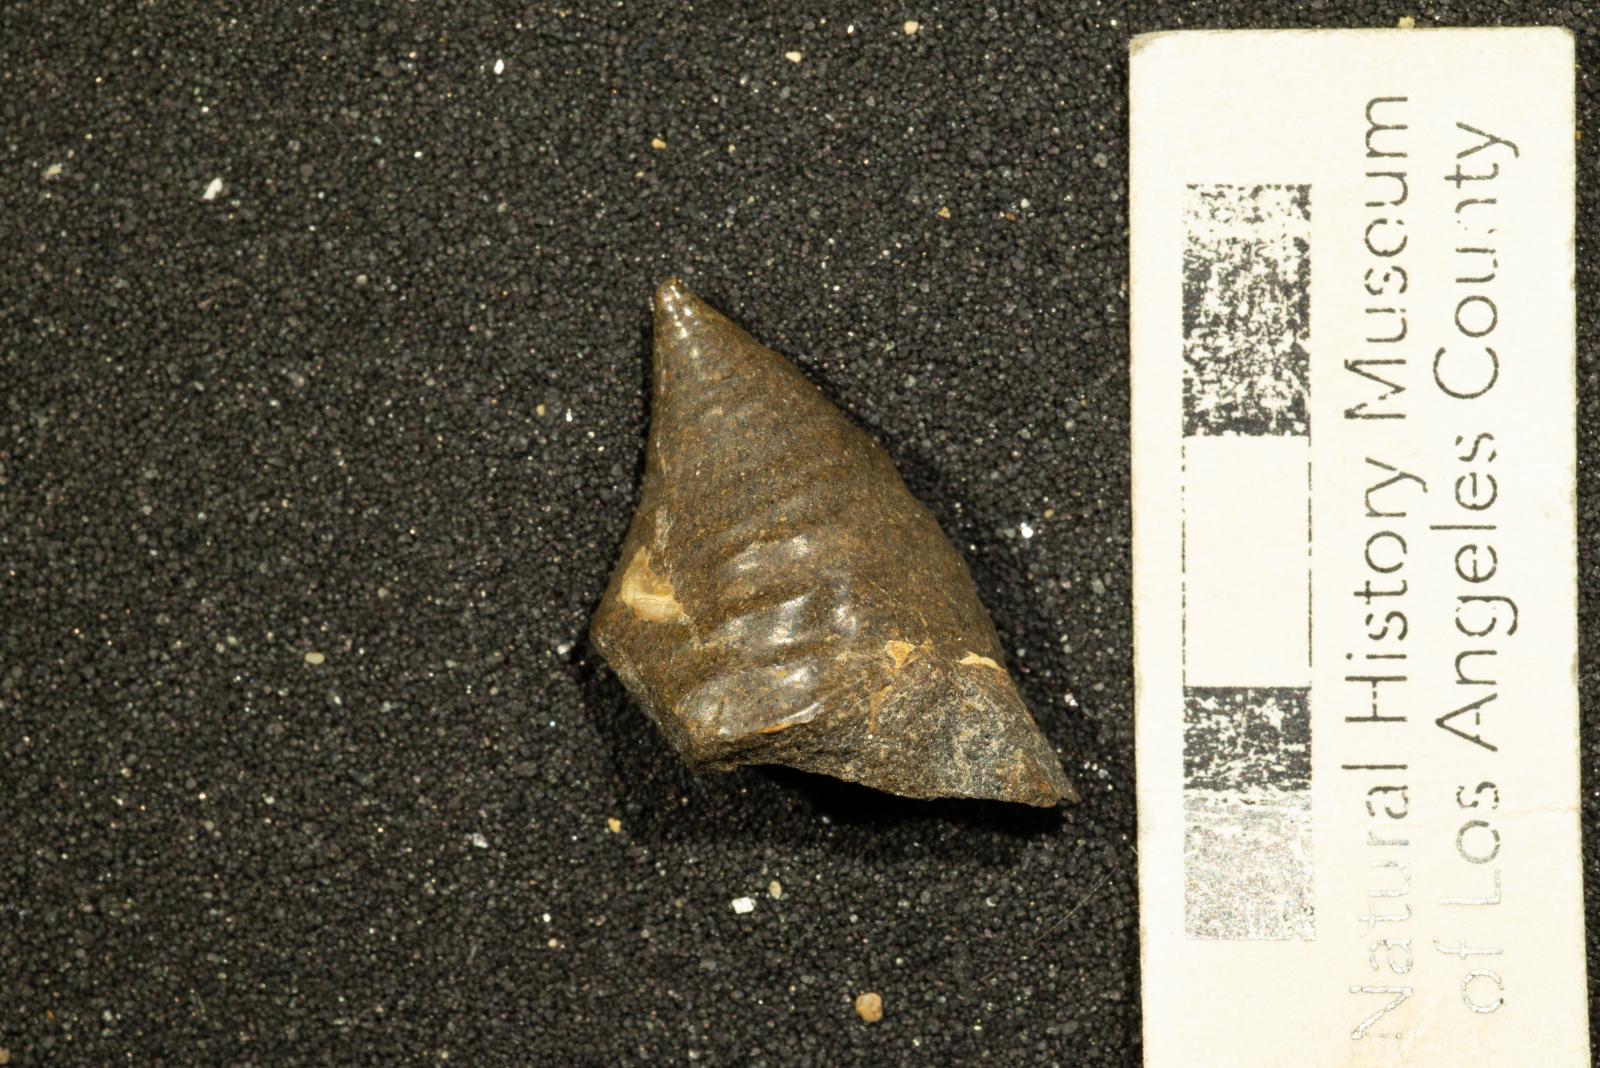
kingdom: Animalia
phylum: Mollusca
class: Gastropoda
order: Siphonariida
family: Siphonariidae
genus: Anisomyon
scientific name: Anisomyon
